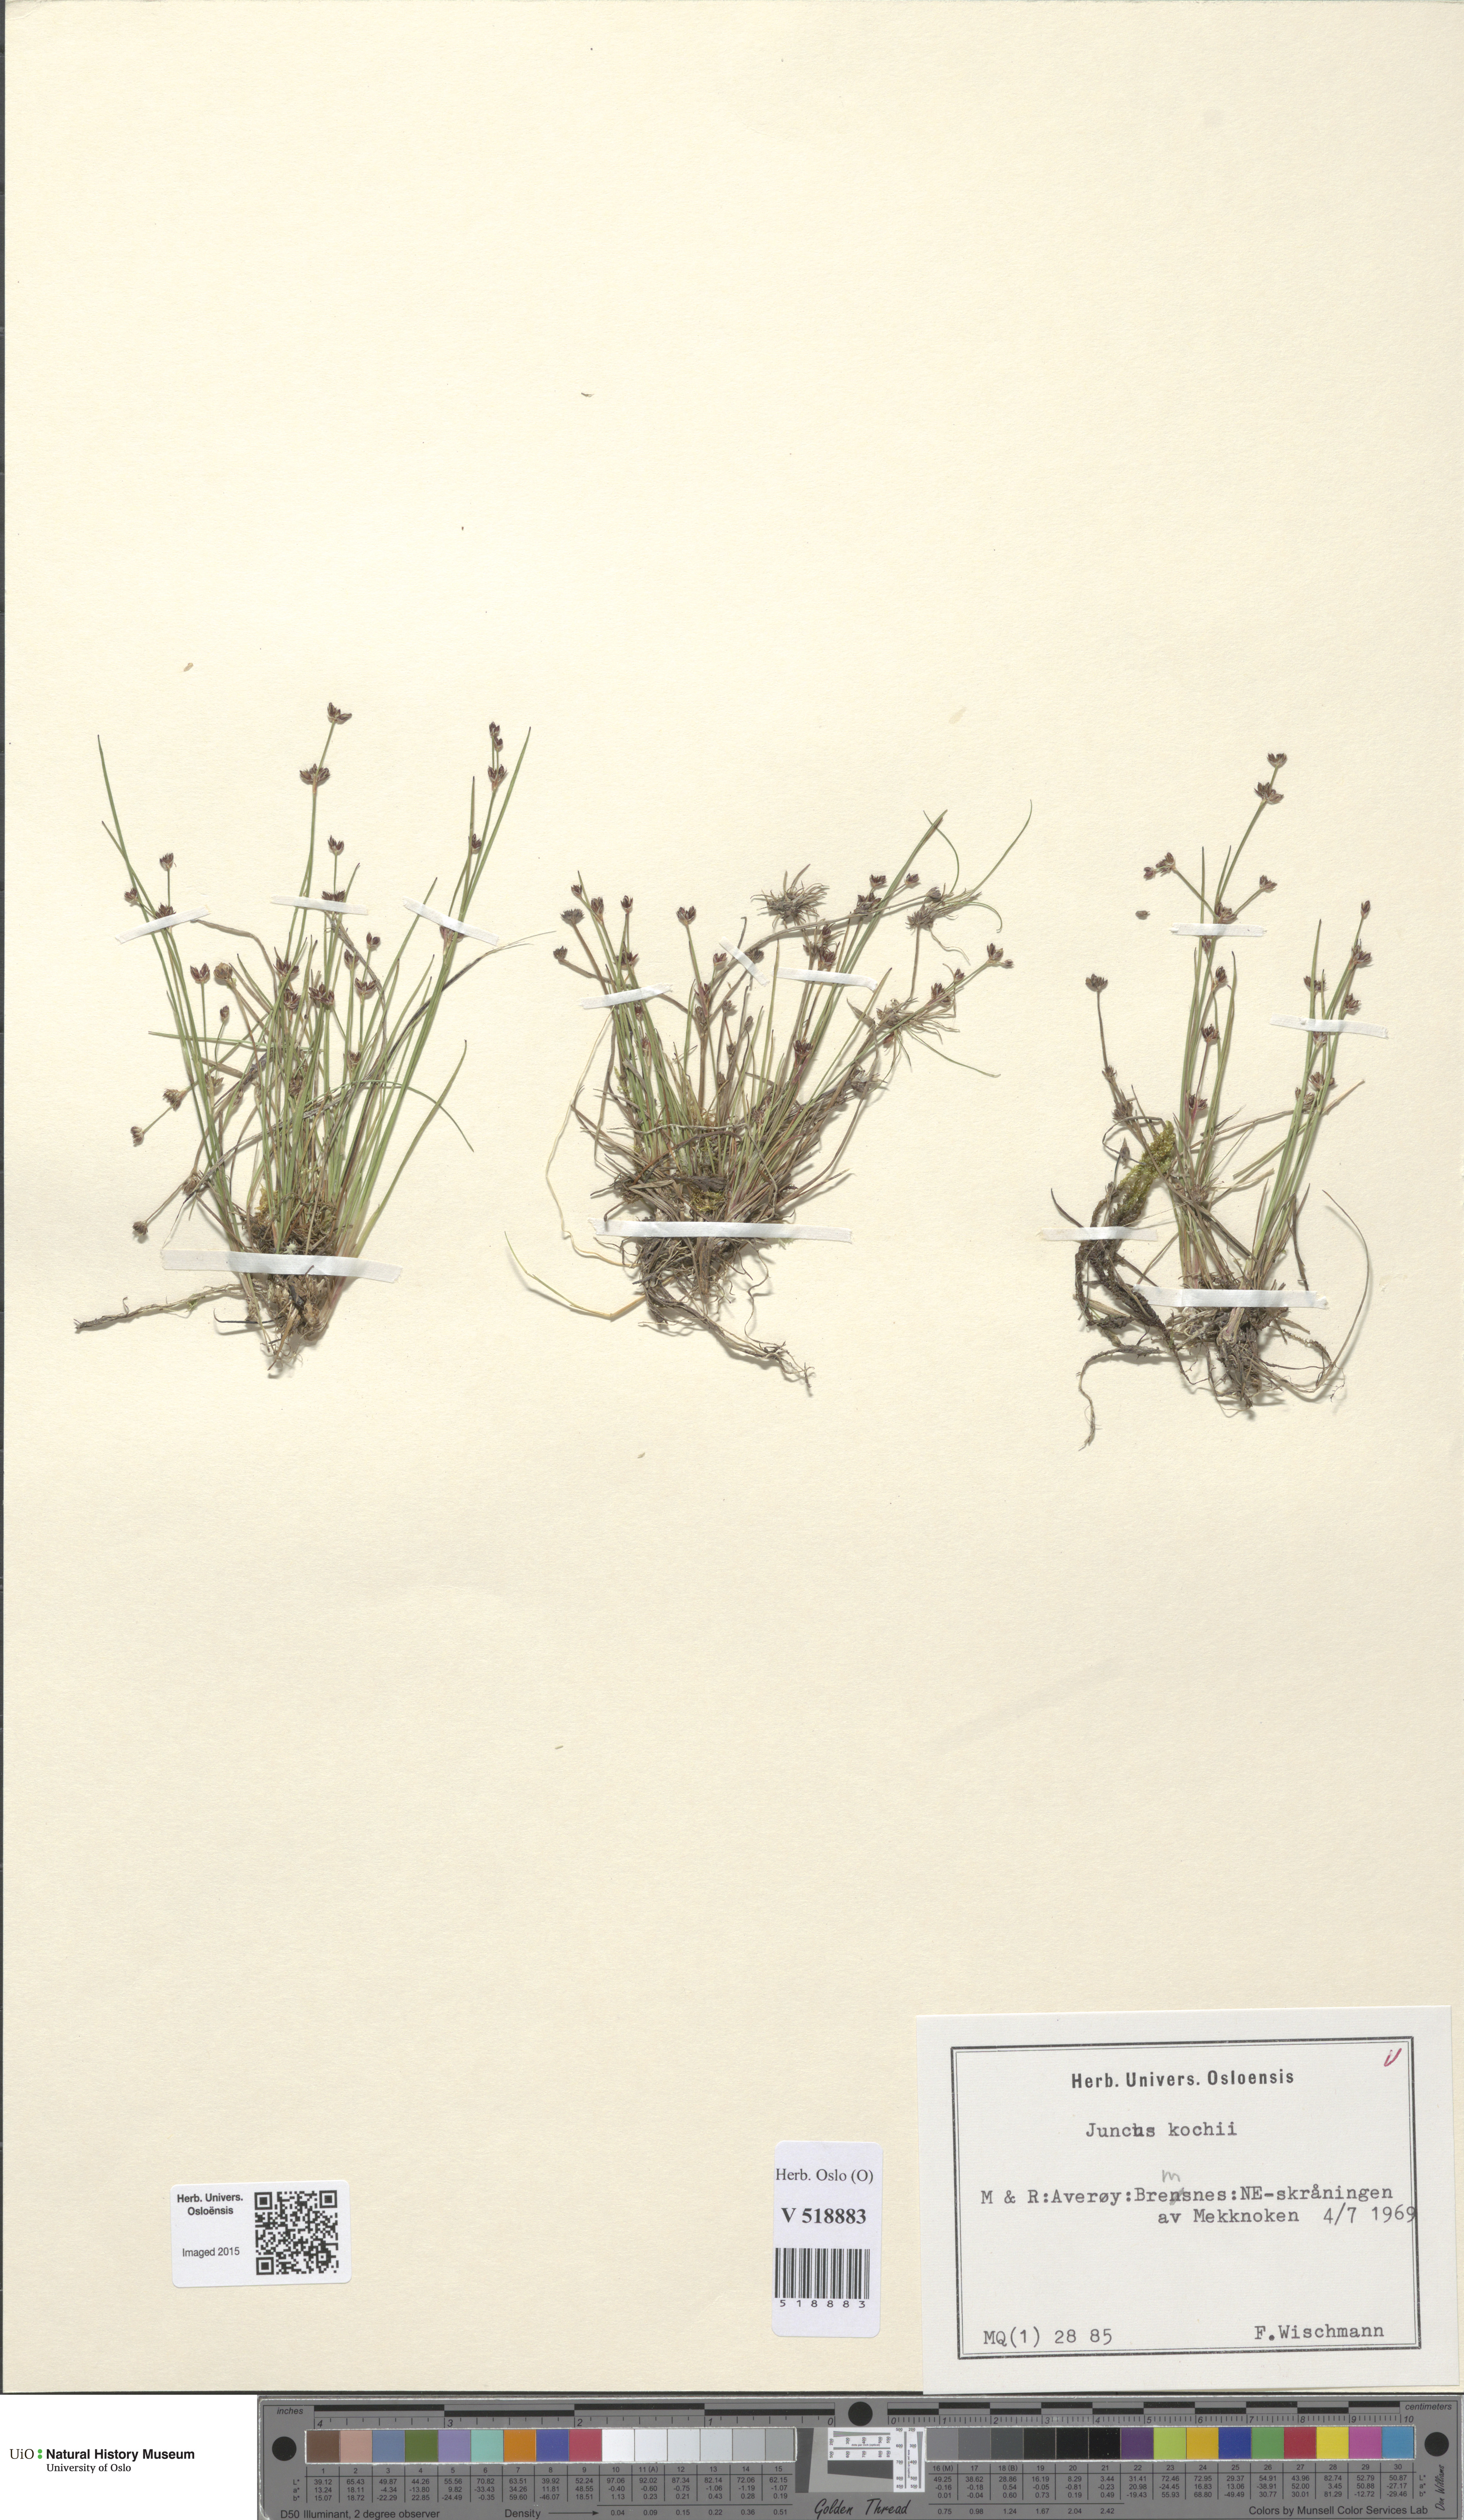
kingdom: Plantae
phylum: Tracheophyta
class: Liliopsida
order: Poales
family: Juncaceae
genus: Juncus
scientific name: Juncus bulbosus
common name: Bulbous rush
